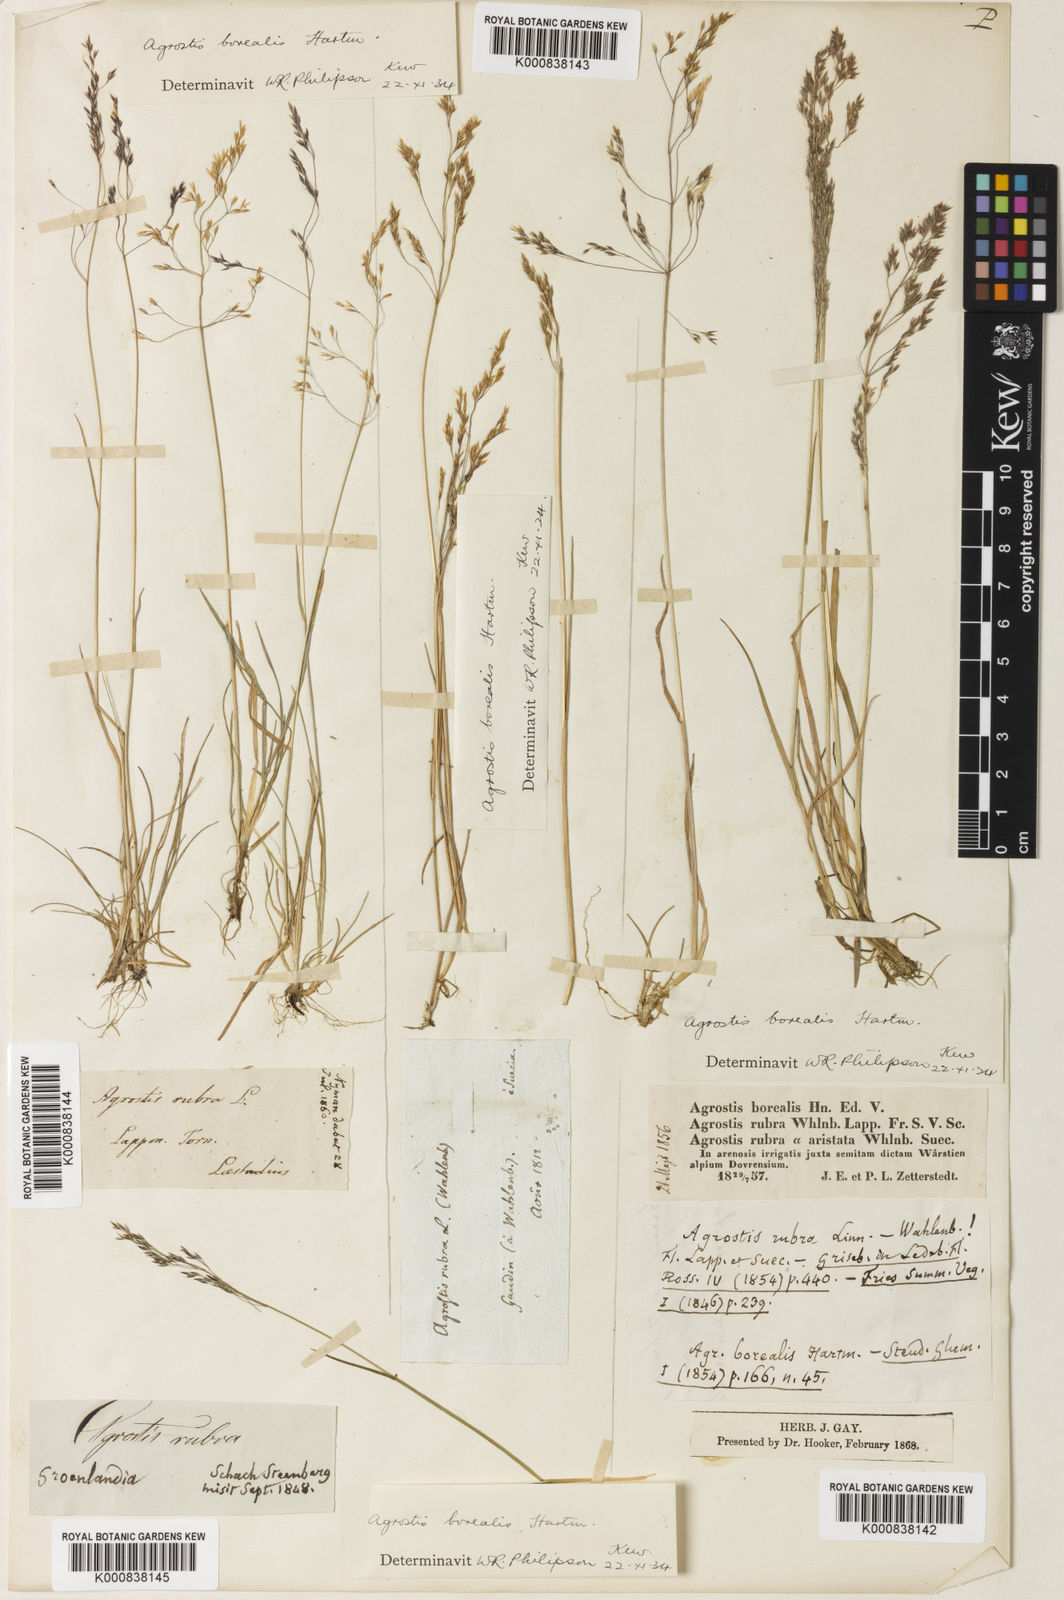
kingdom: Plantae
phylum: Tracheophyta
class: Liliopsida
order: Poales
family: Poaceae
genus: Agrostis
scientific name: Agrostis mertensii
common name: Northern bent
